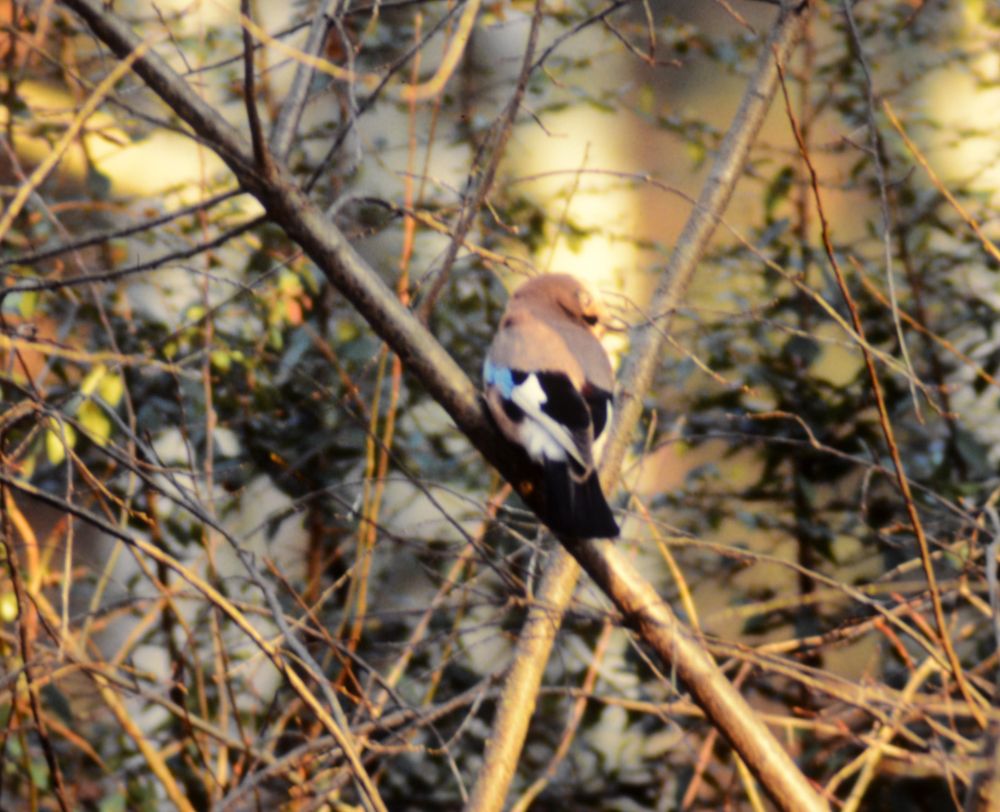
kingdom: Animalia
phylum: Chordata
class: Aves
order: Passeriformes
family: Corvidae
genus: Garrulus
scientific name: Garrulus glandarius
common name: Eurasian jay
